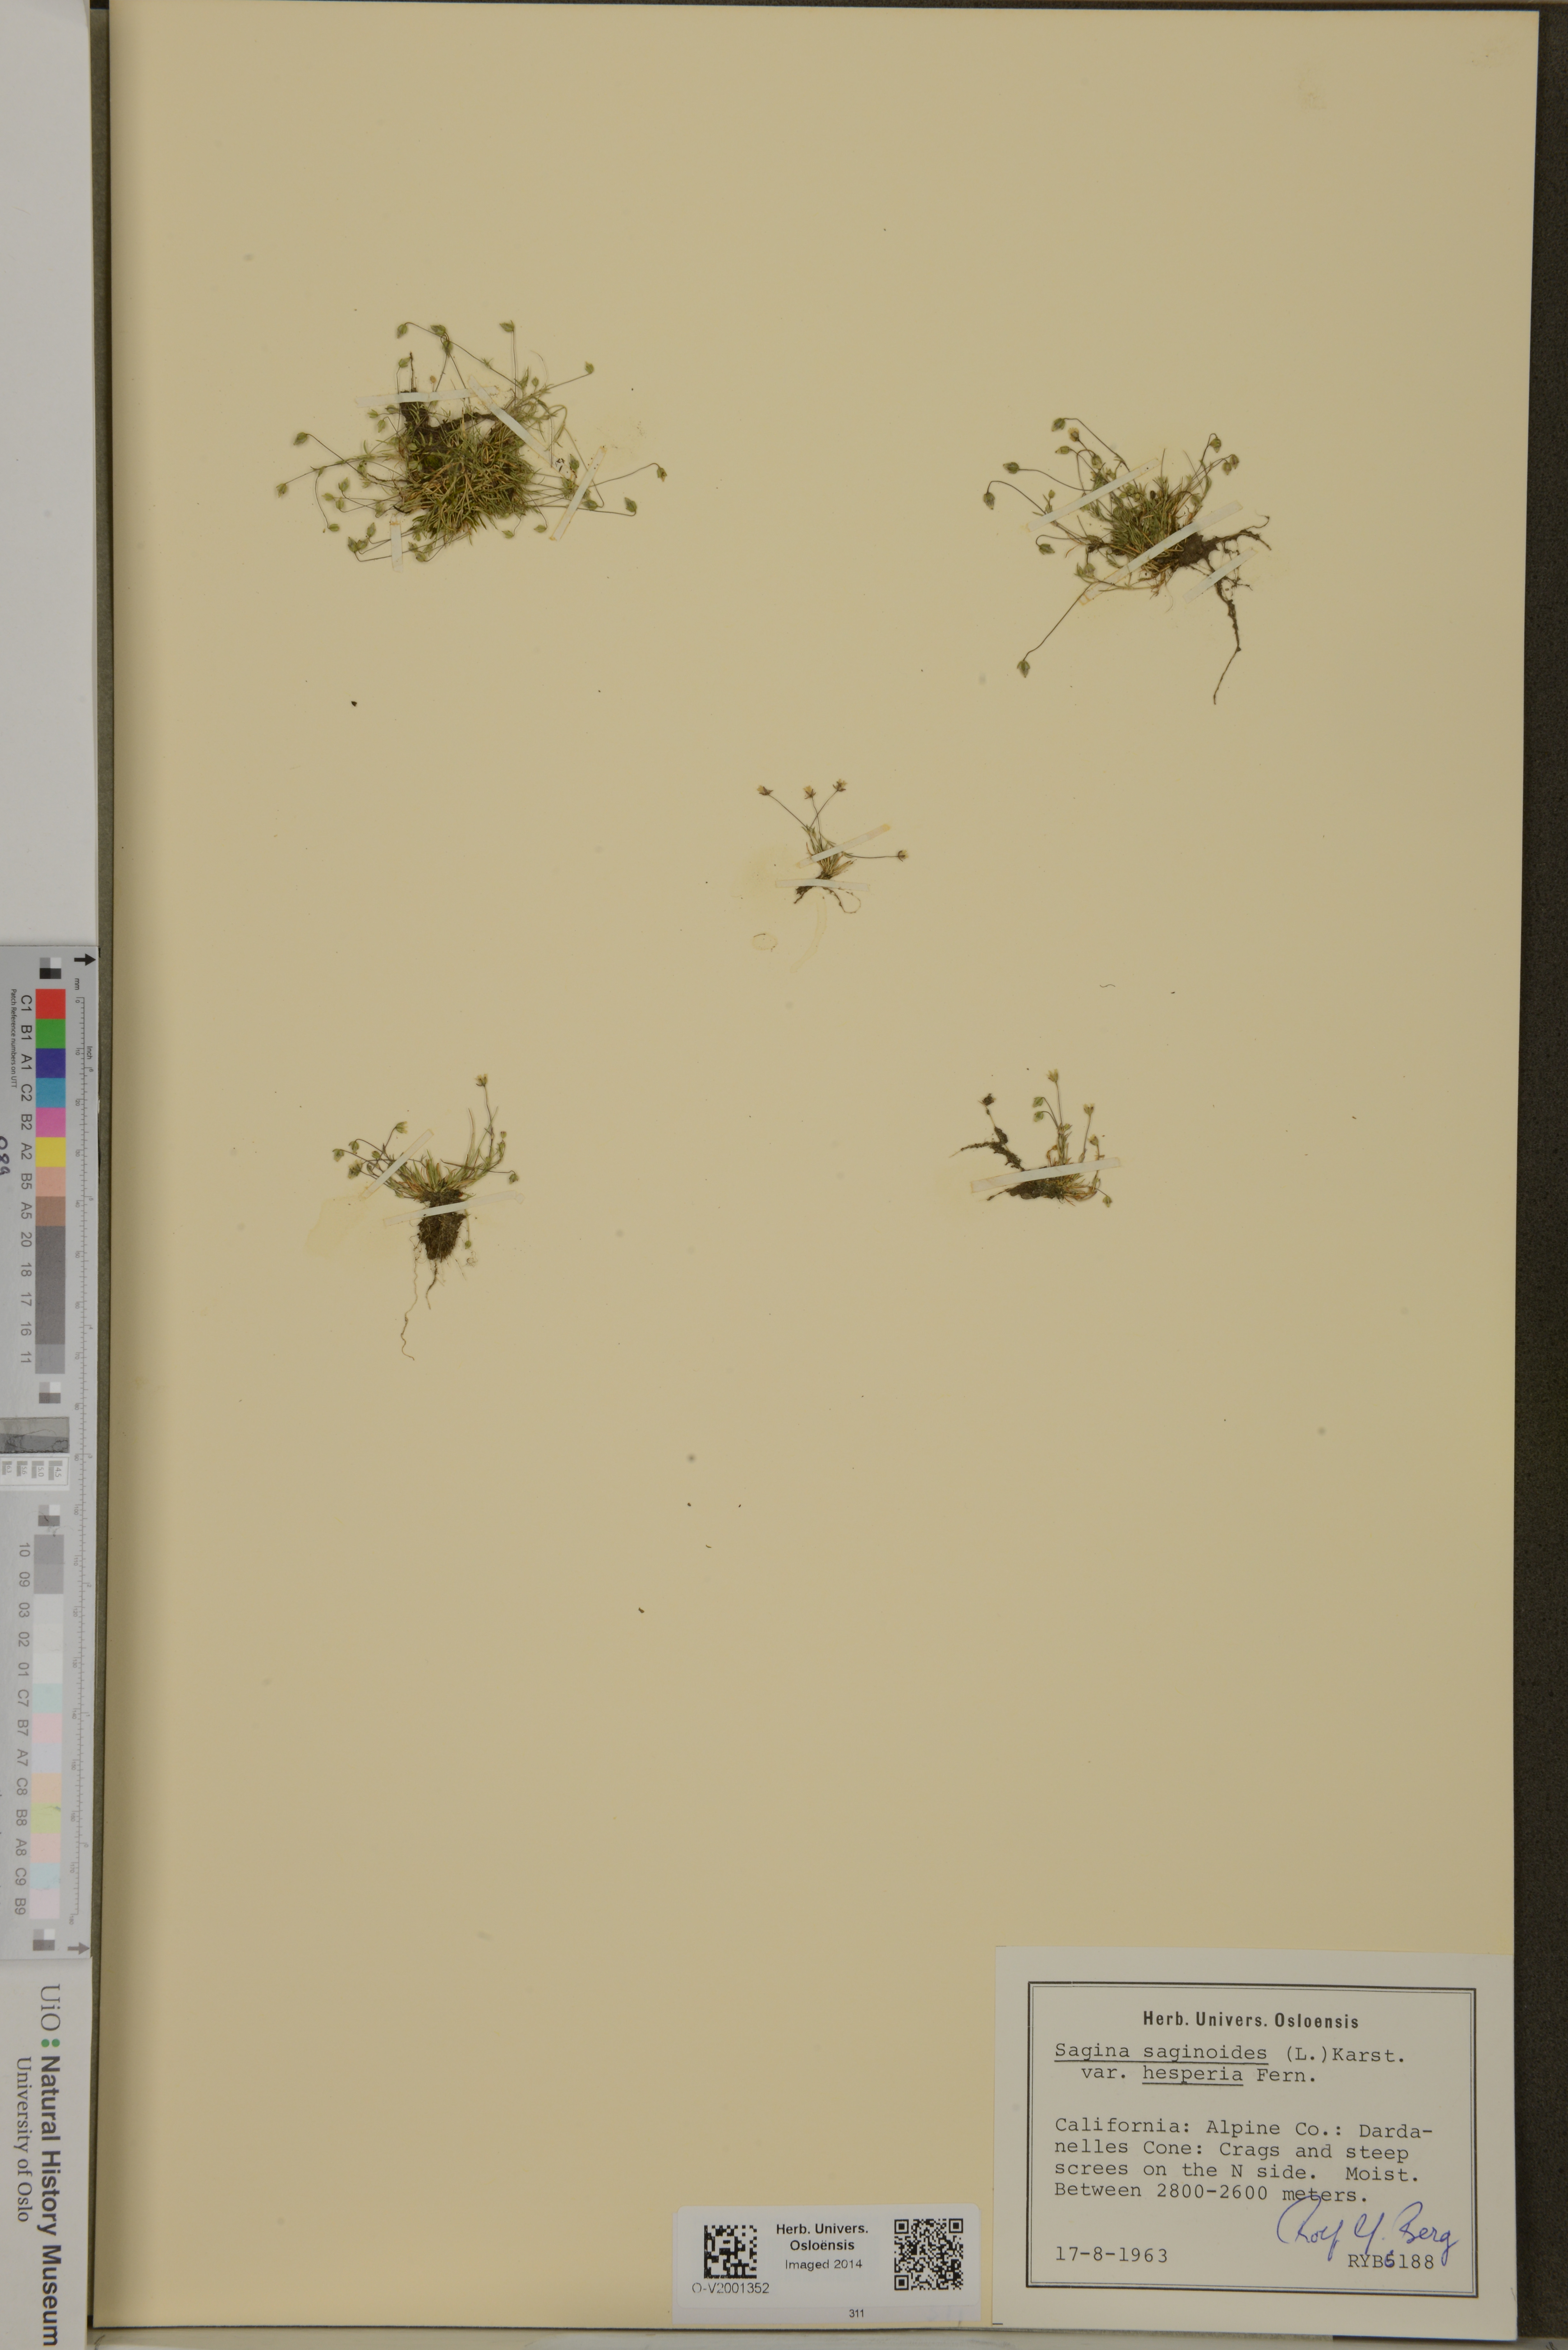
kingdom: Plantae
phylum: Tracheophyta
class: Magnoliopsida
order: Caryophyllales
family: Caryophyllaceae
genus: Sagina
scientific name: Sagina saginoides
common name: Alpine pearlwort
